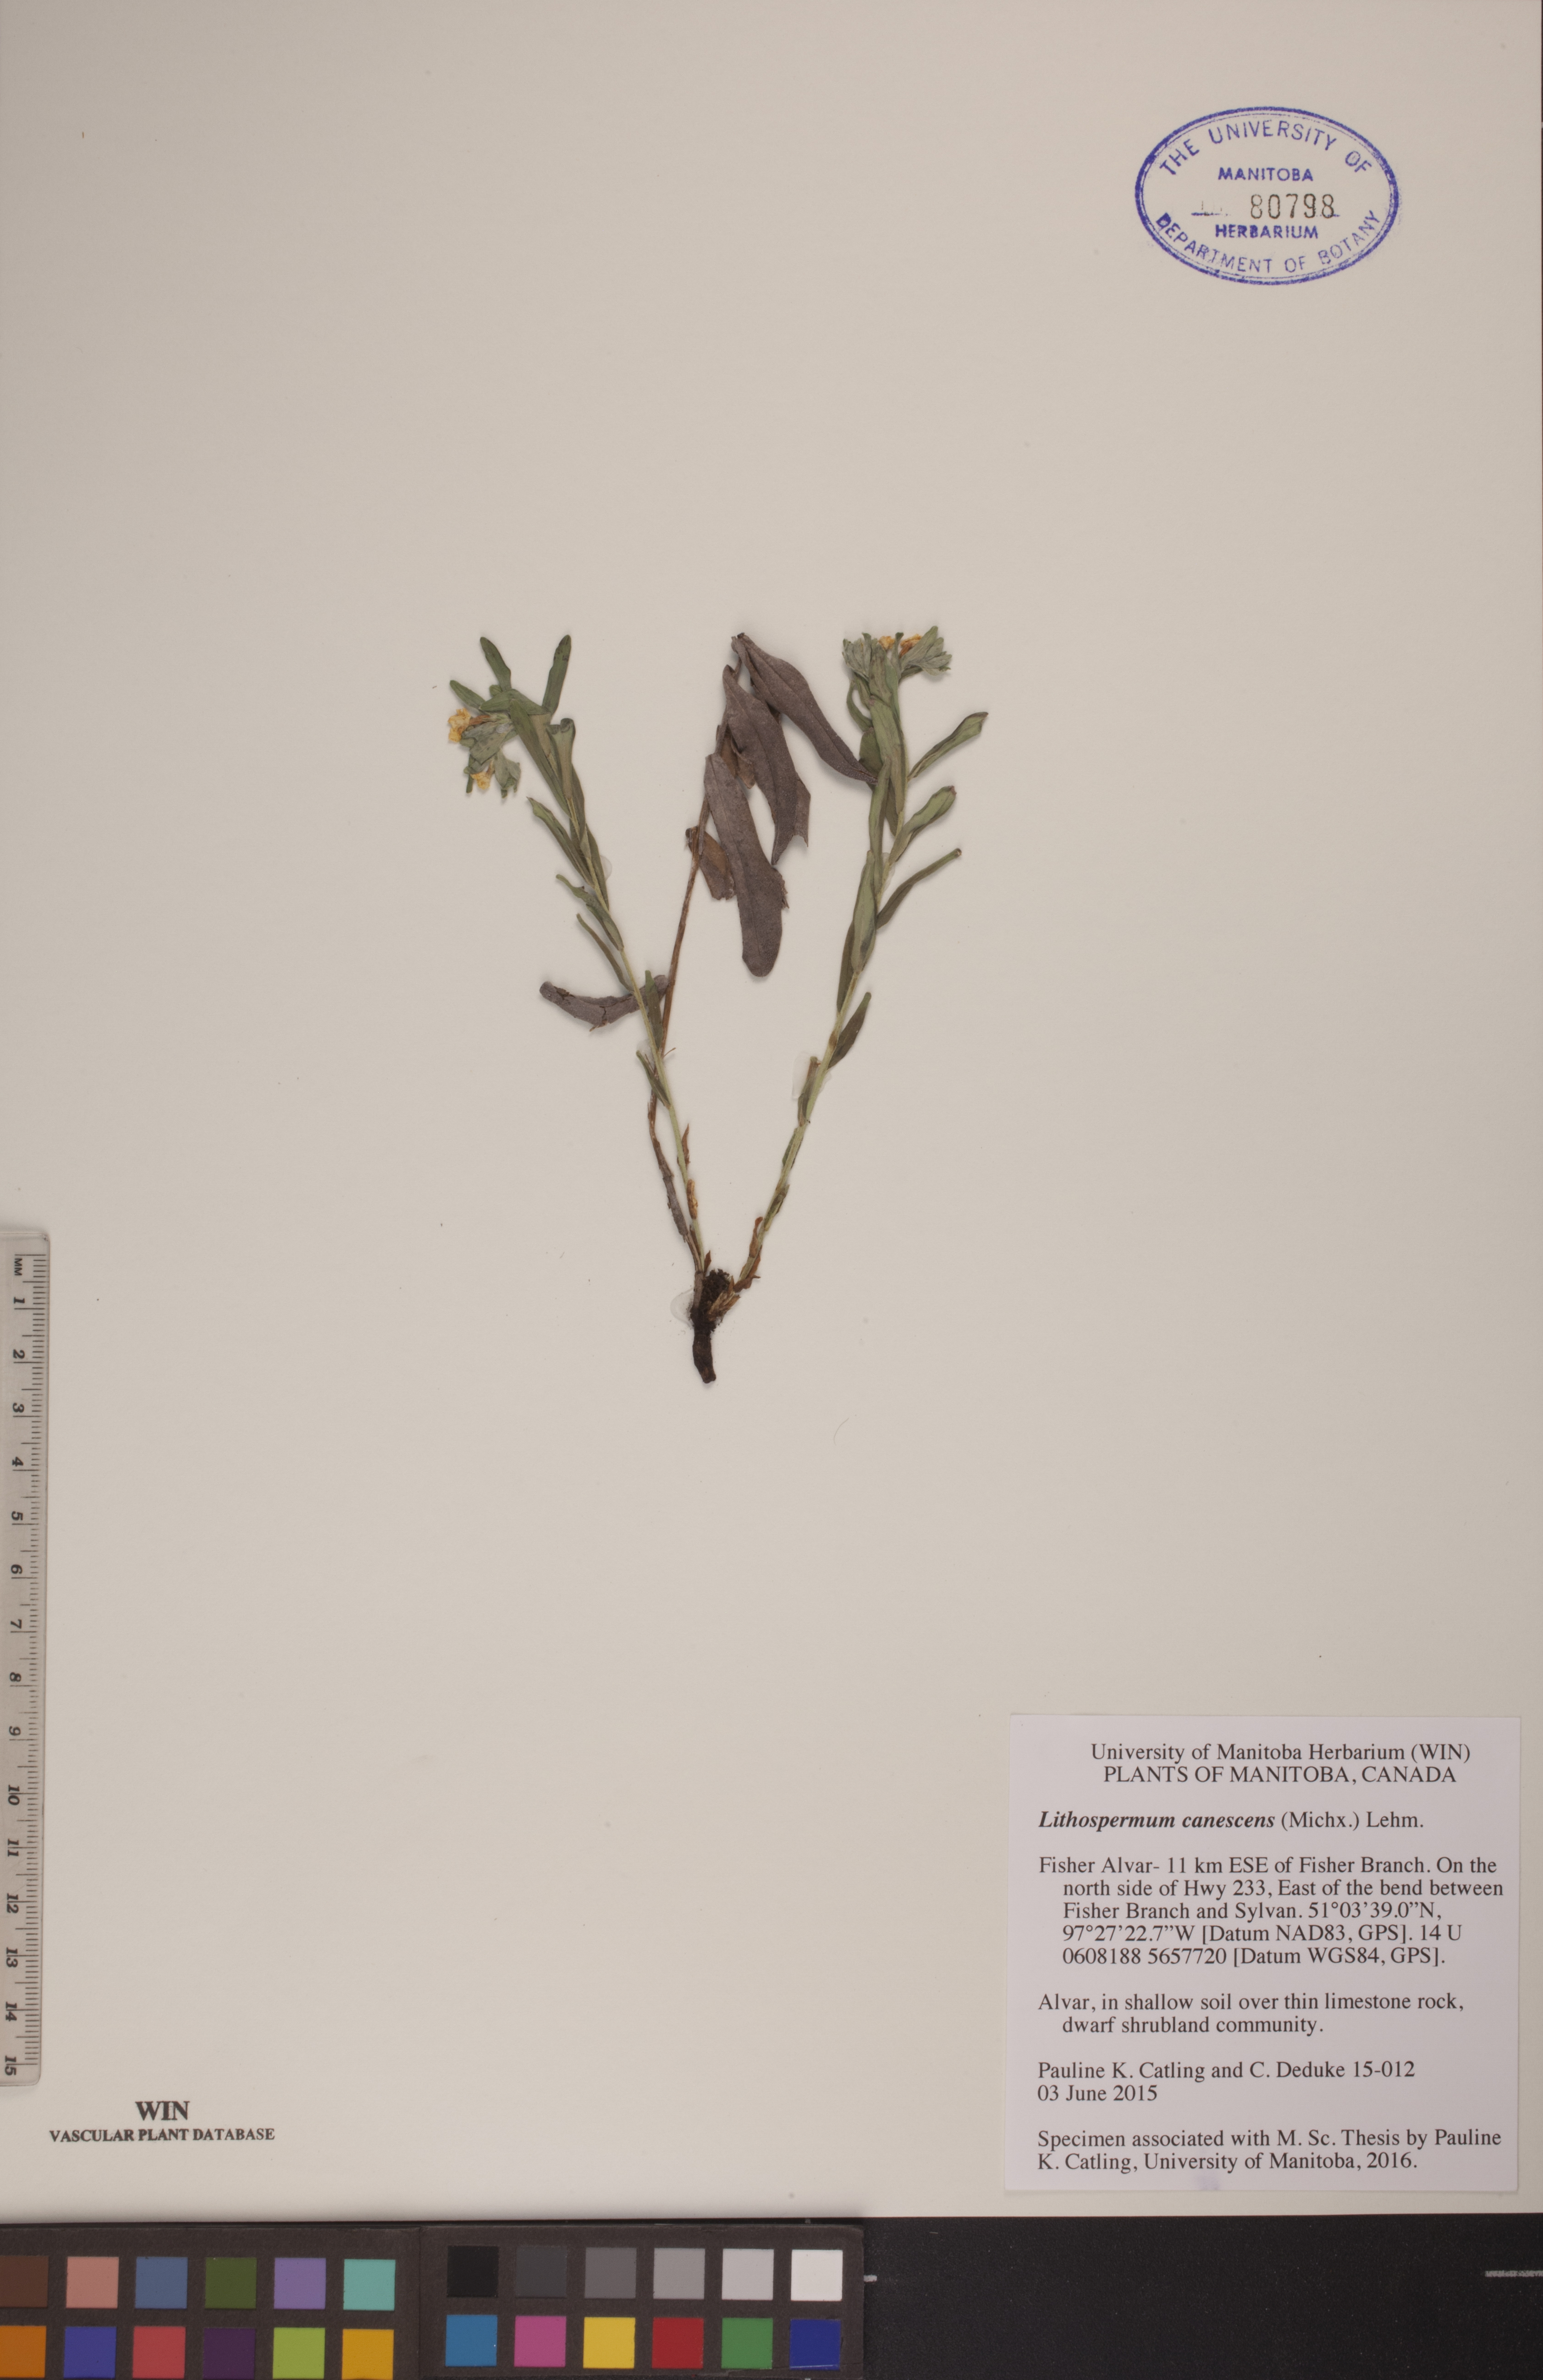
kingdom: Plantae
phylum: Tracheophyta
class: Magnoliopsida
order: Boraginales
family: Boraginaceae
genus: Lithospermum
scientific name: Lithospermum canescens
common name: Hoary puccoon
